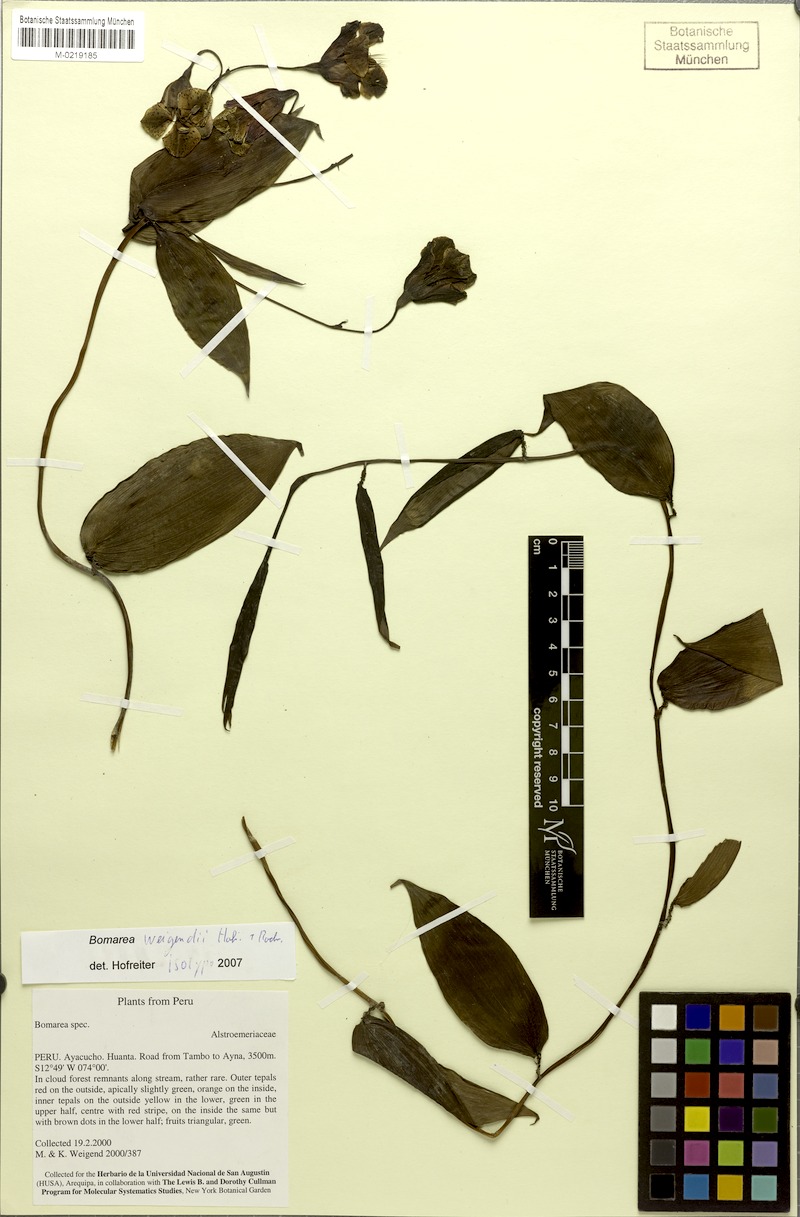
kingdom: Plantae
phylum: Tracheophyta
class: Liliopsida
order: Liliales
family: Alstroemeriaceae
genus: Bomarea
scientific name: Bomarea weigendii
